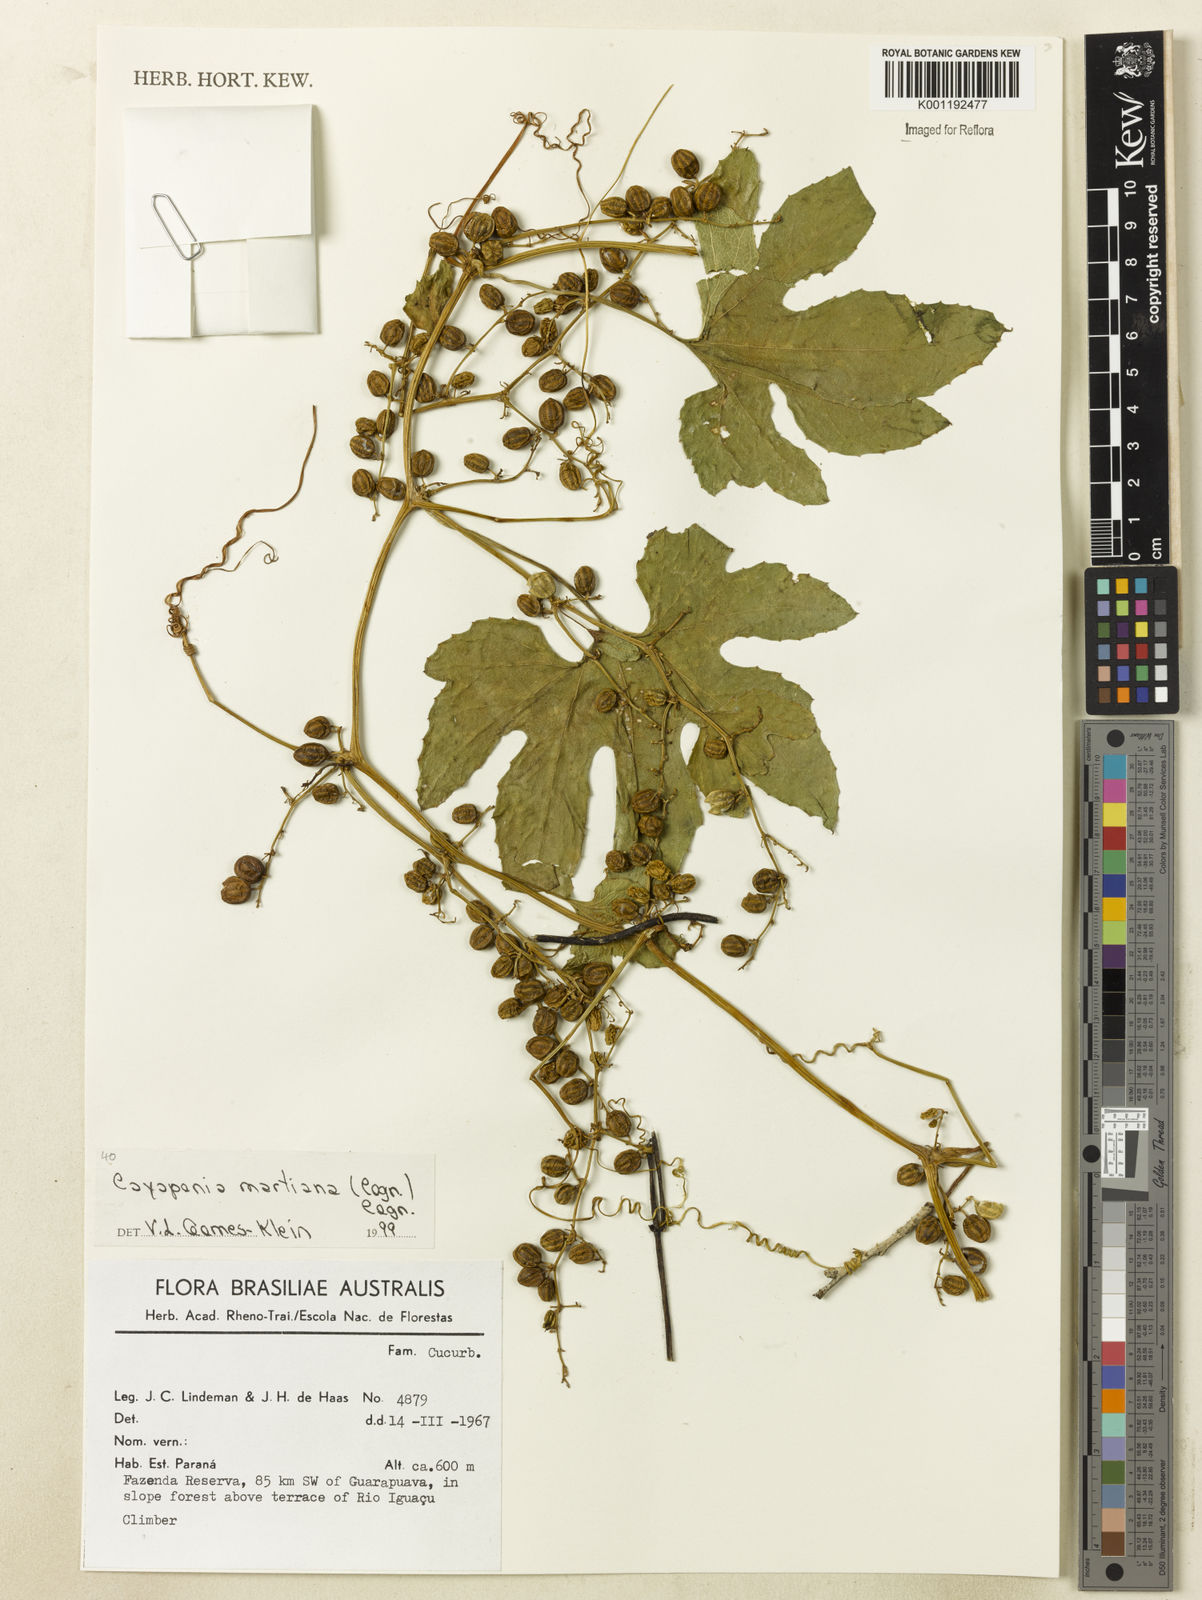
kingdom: Plantae
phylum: Tracheophyta
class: Magnoliopsida
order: Cucurbitales
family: Cucurbitaceae
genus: Cayaponia
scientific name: Cayaponia martiana
